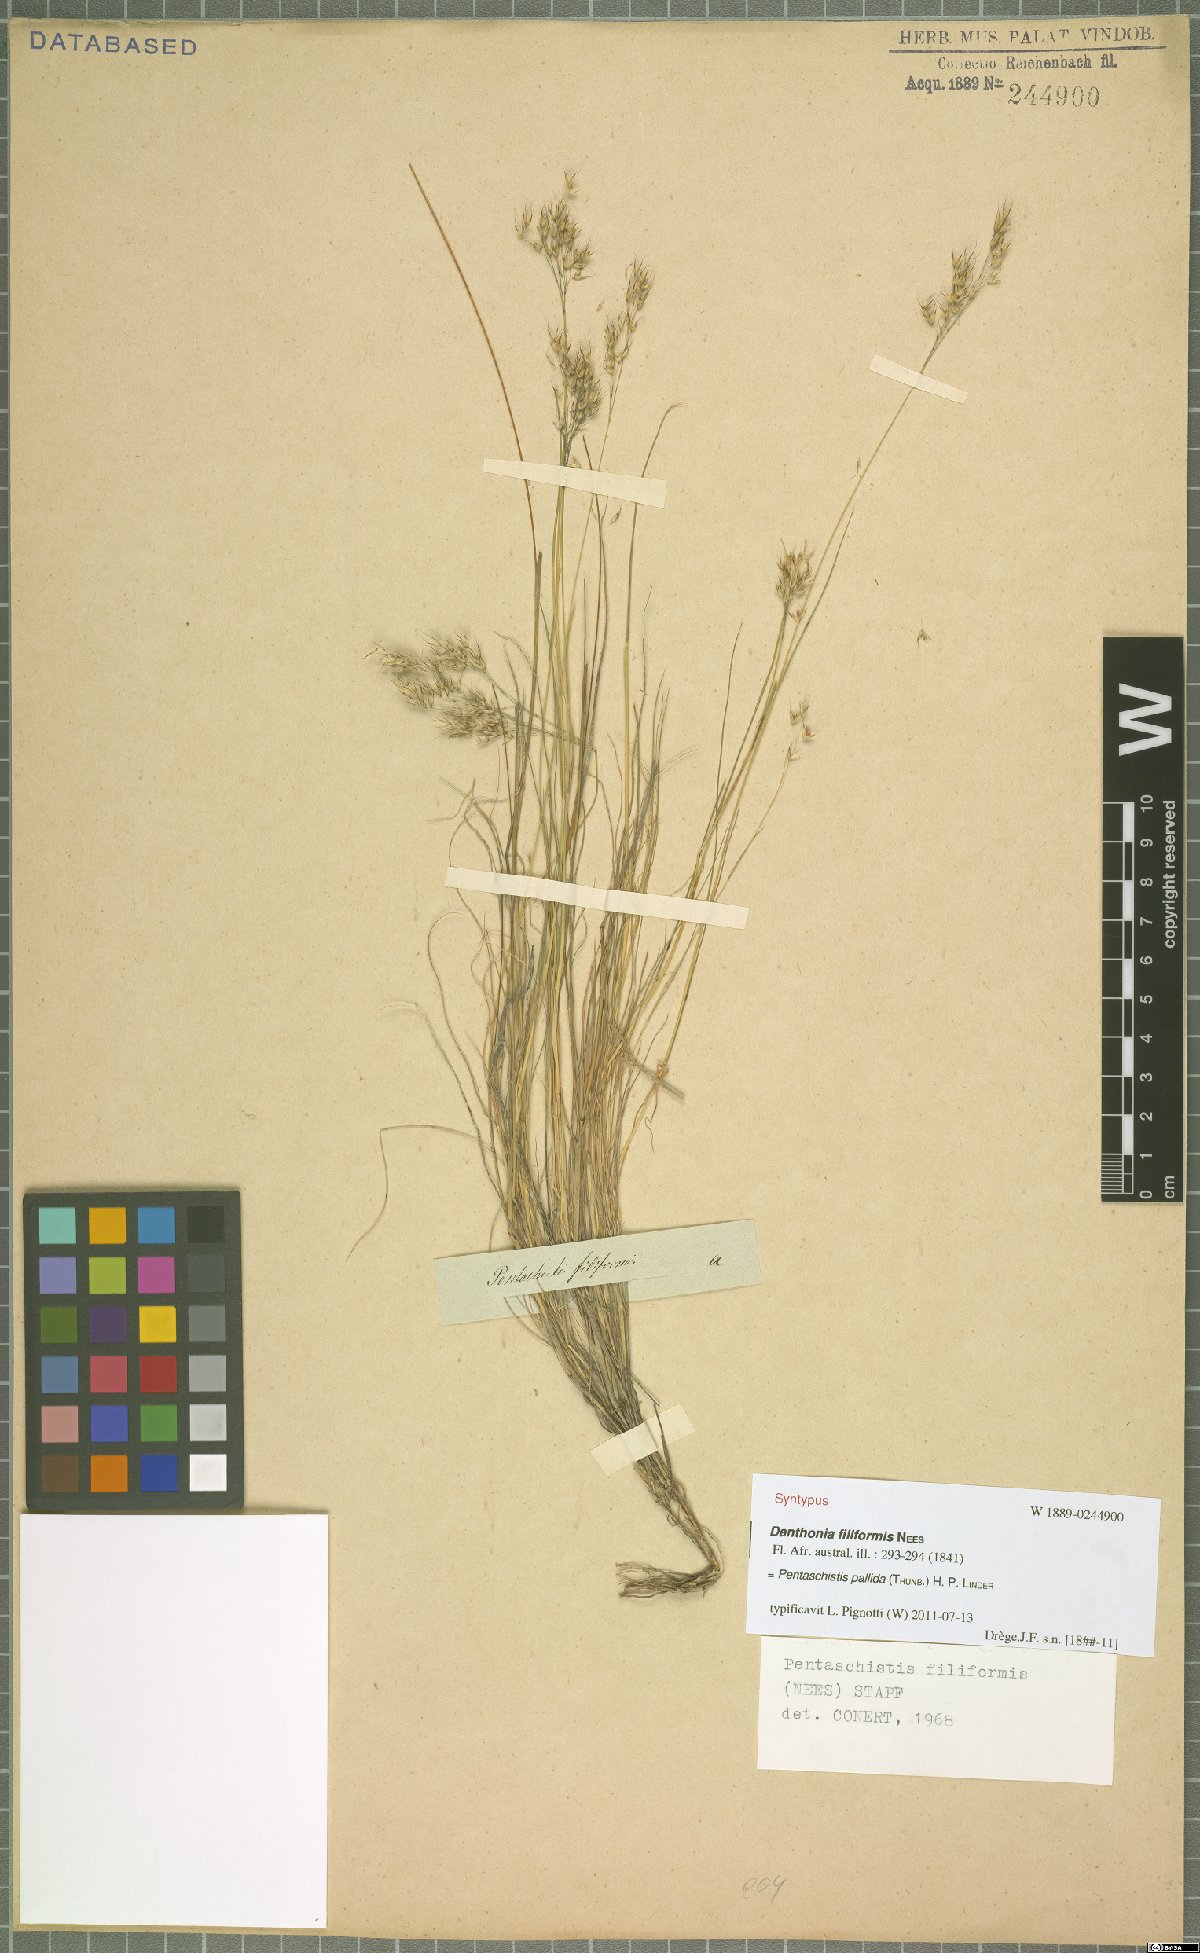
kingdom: Plantae
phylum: Tracheophyta
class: Liliopsida
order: Poales
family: Poaceae
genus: Pentameris
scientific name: Pentameris pallida
